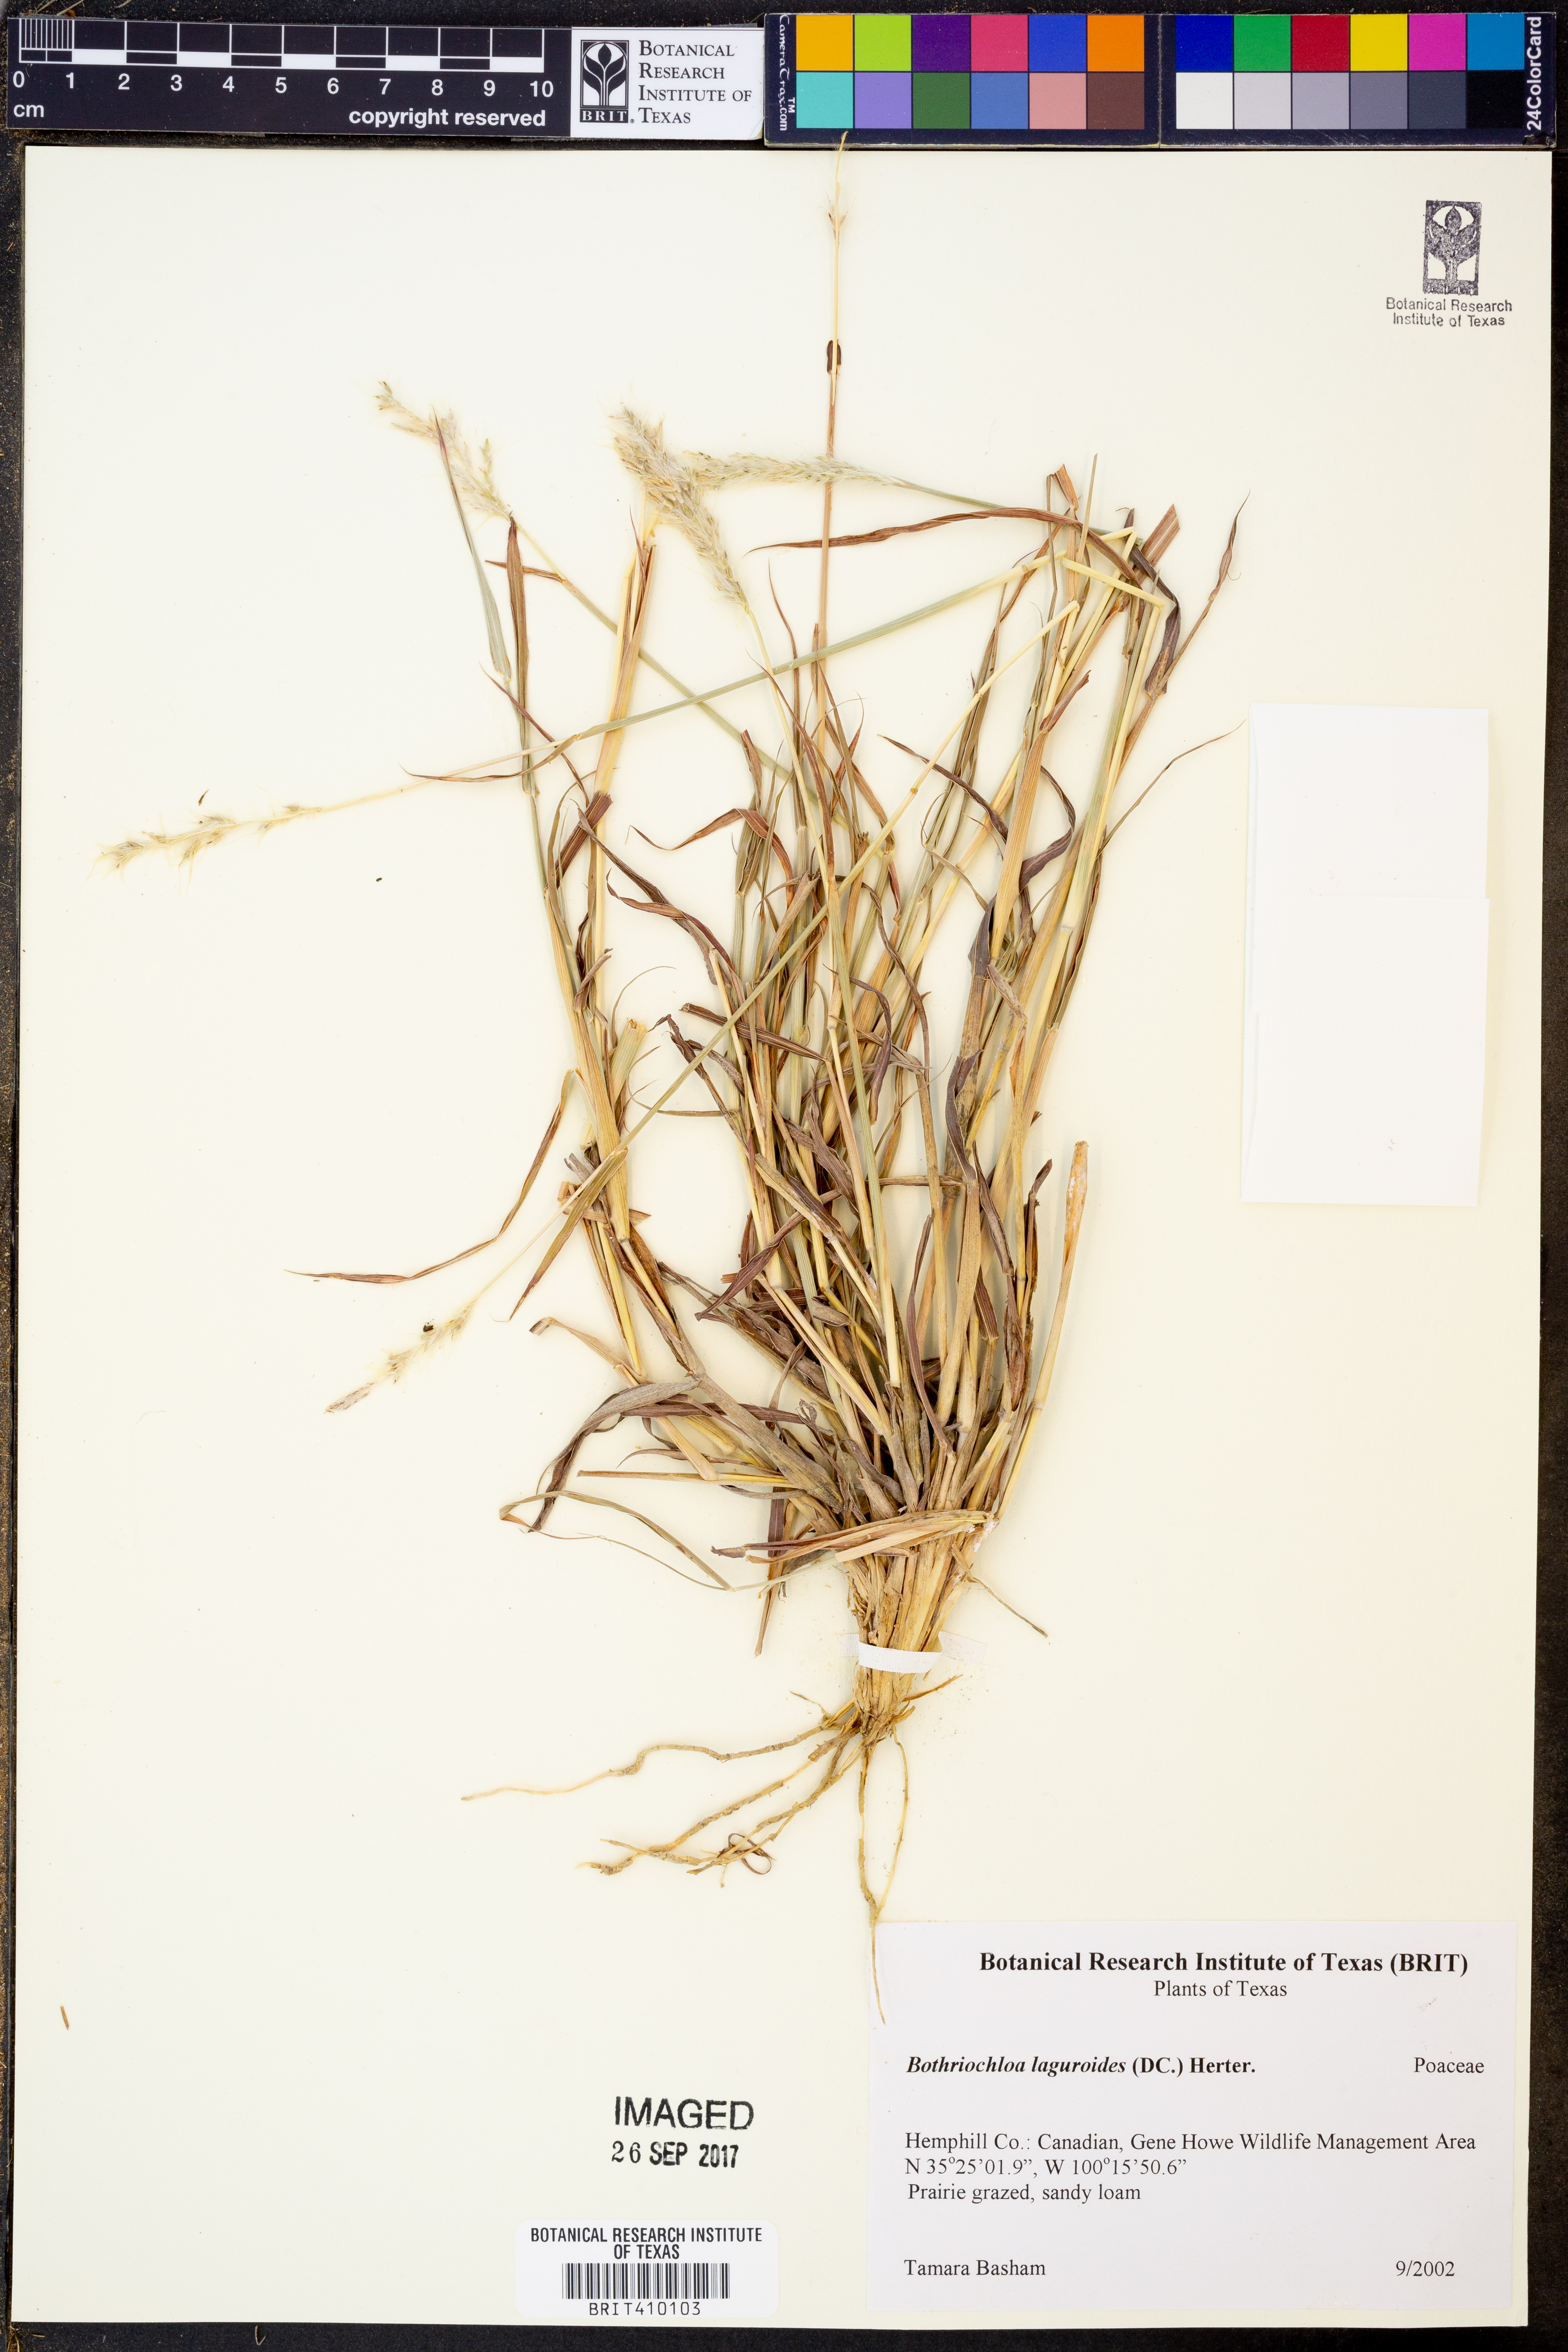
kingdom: Plantae
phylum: Tracheophyta
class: Liliopsida
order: Poales
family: Poaceae
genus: Bothriochloa
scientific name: Bothriochloa laguroides
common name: Silver bluestem
